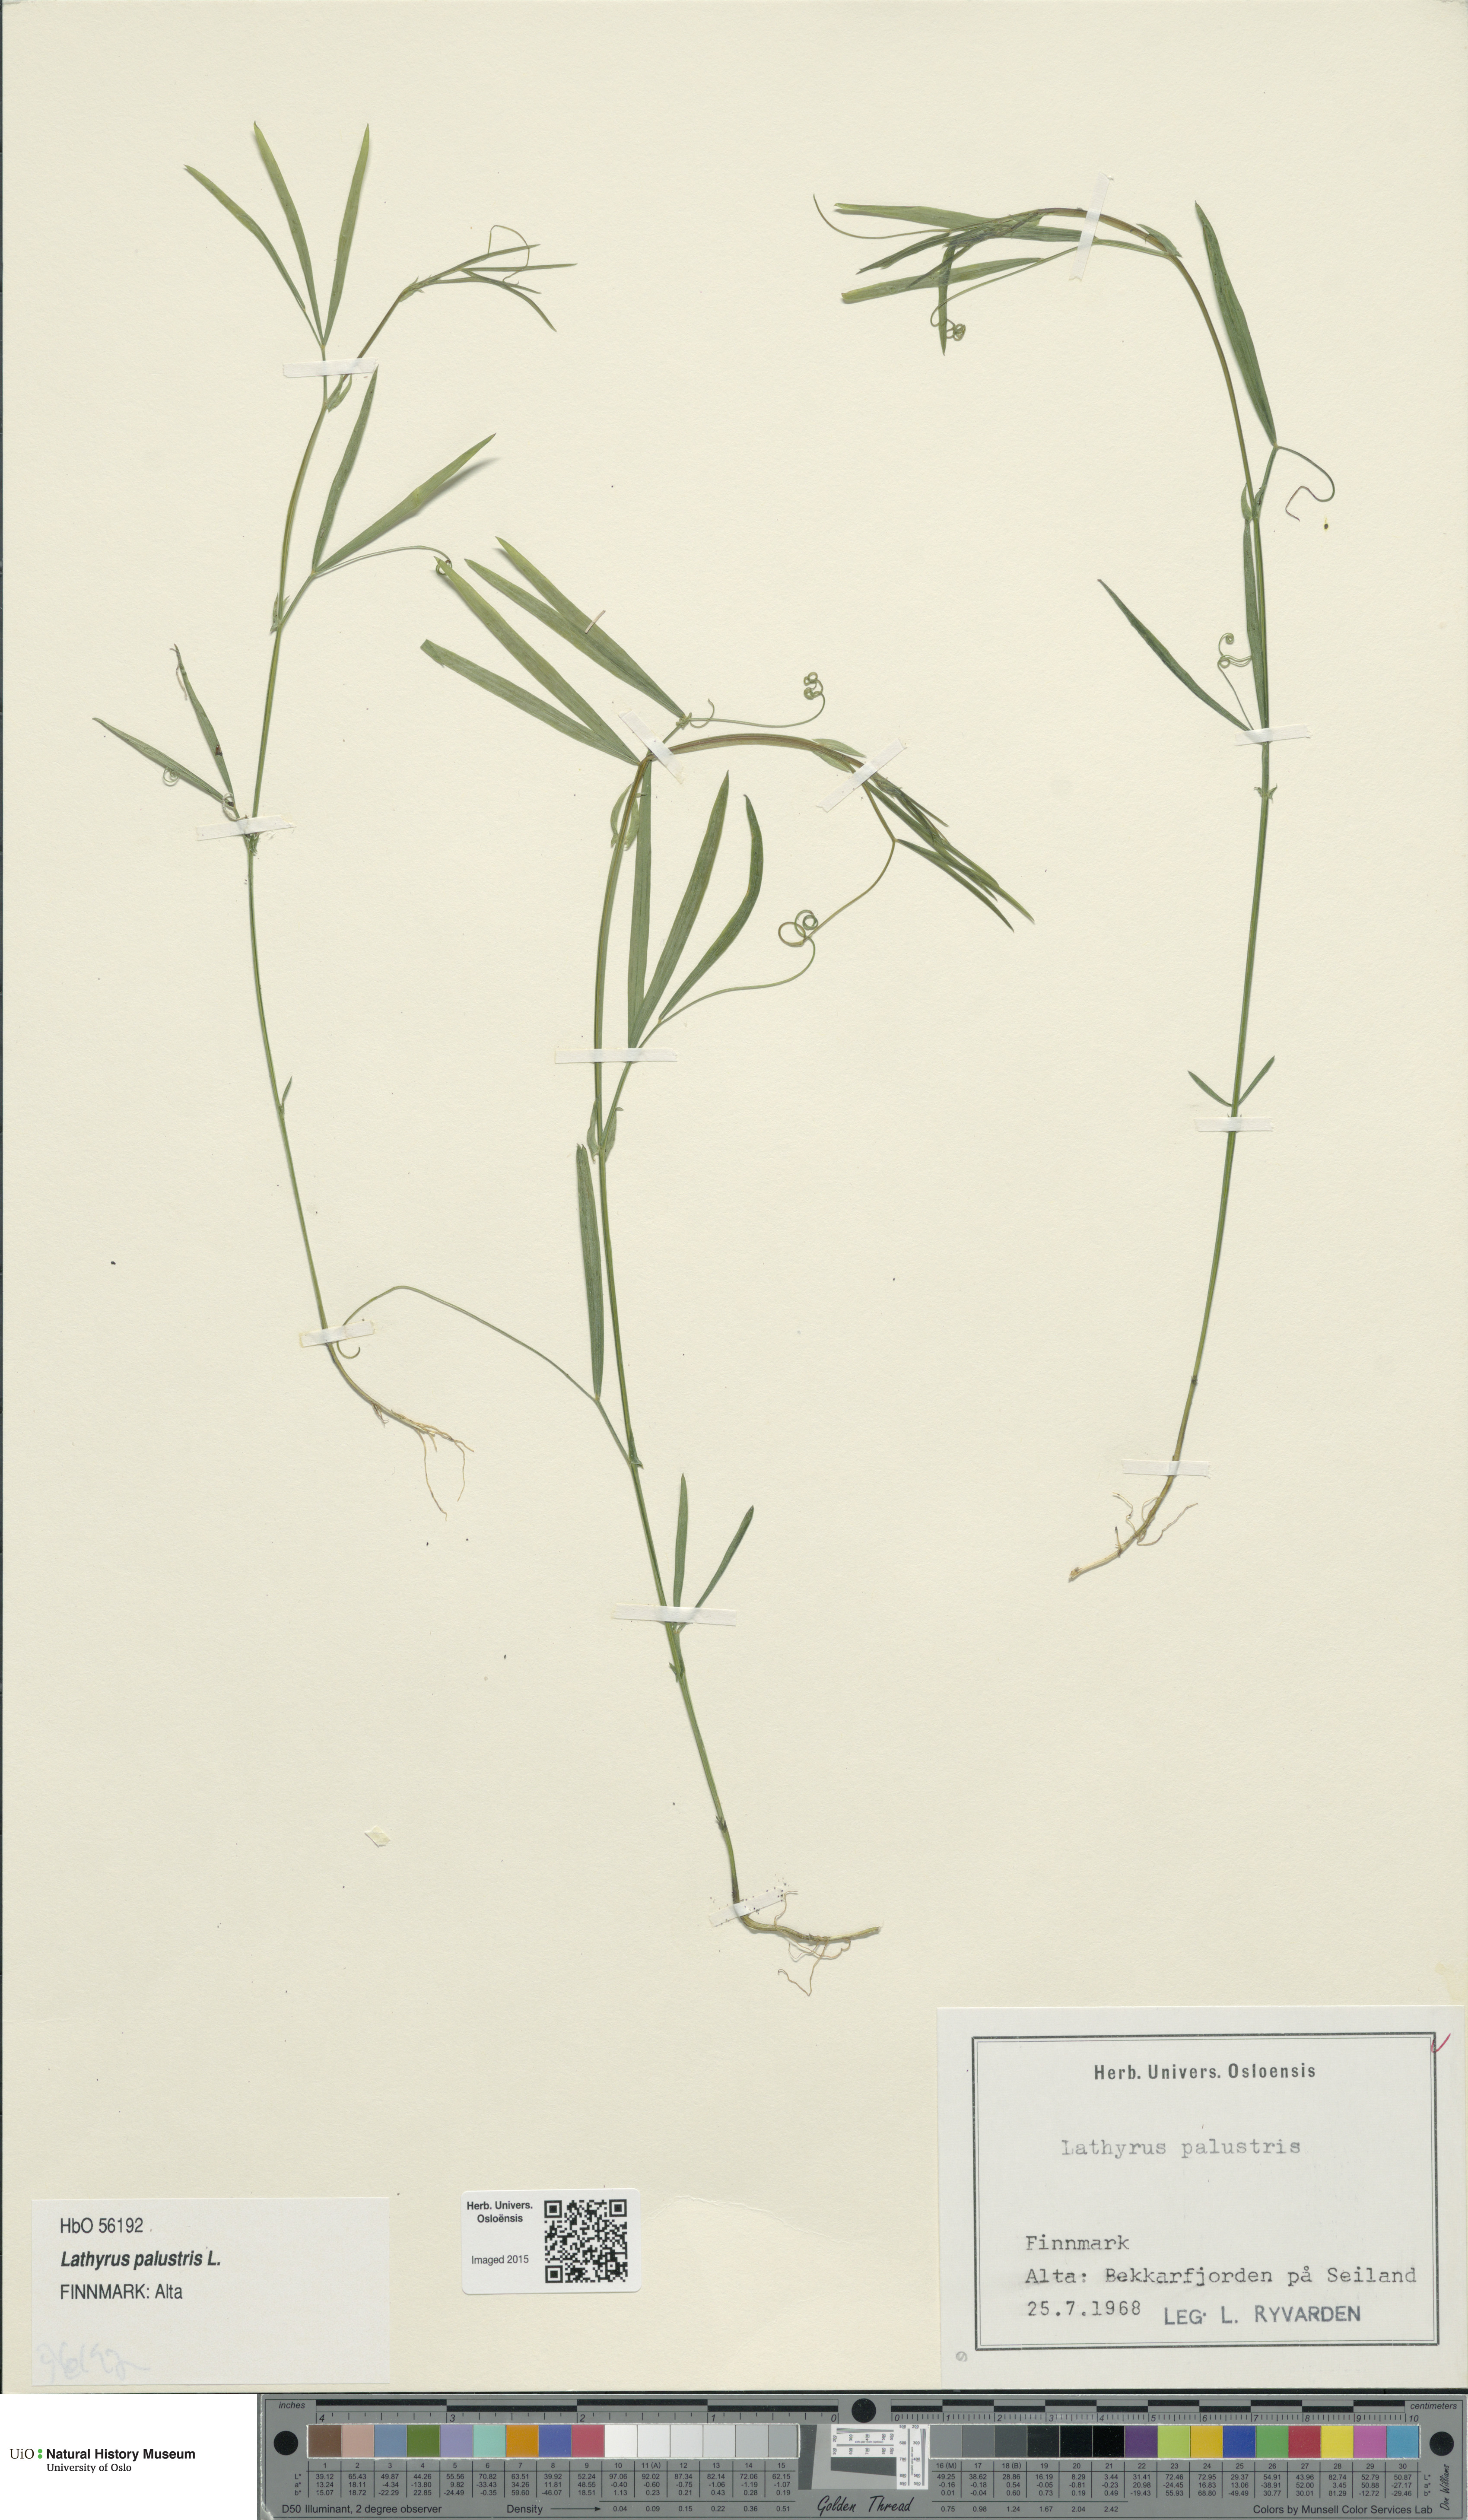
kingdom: Plantae
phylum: Tracheophyta
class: Magnoliopsida
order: Fabales
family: Fabaceae
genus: Lathyrus
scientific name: Lathyrus palustris
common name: Marsh pea
